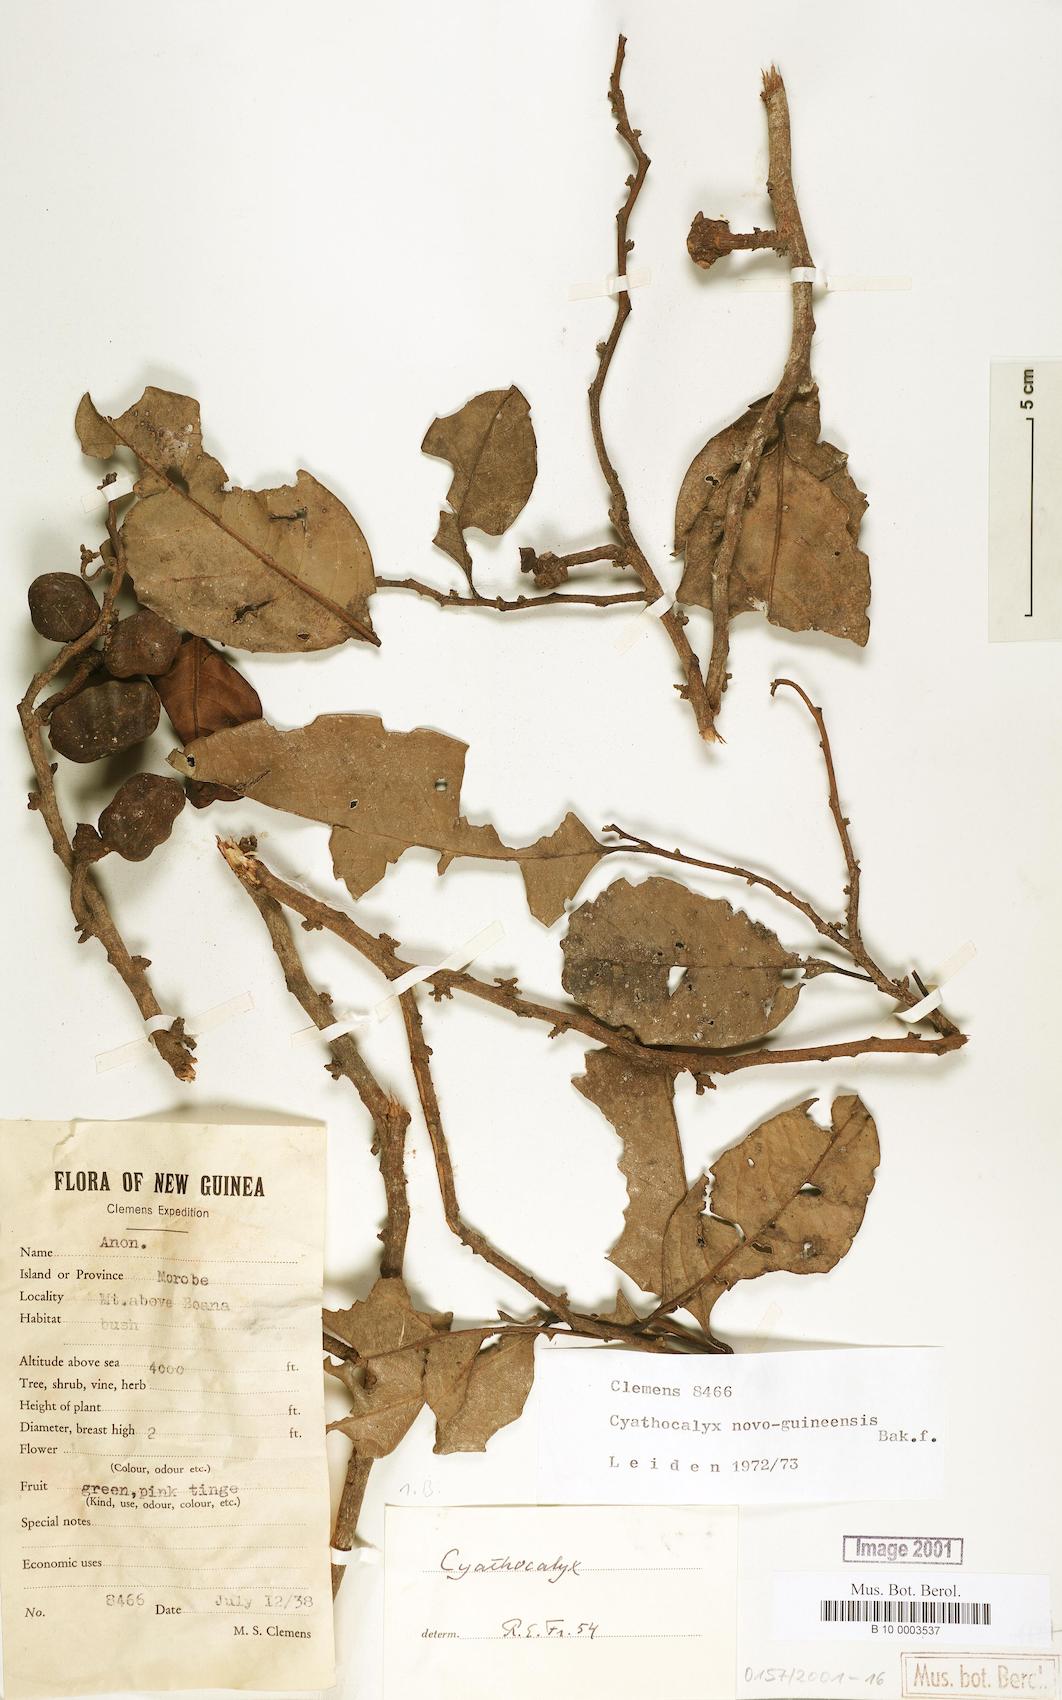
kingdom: Plantae
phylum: Tracheophyta
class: Magnoliopsida
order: Magnoliales
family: Annonaceae
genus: Drepananthus
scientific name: Drepananthus petiolatus
